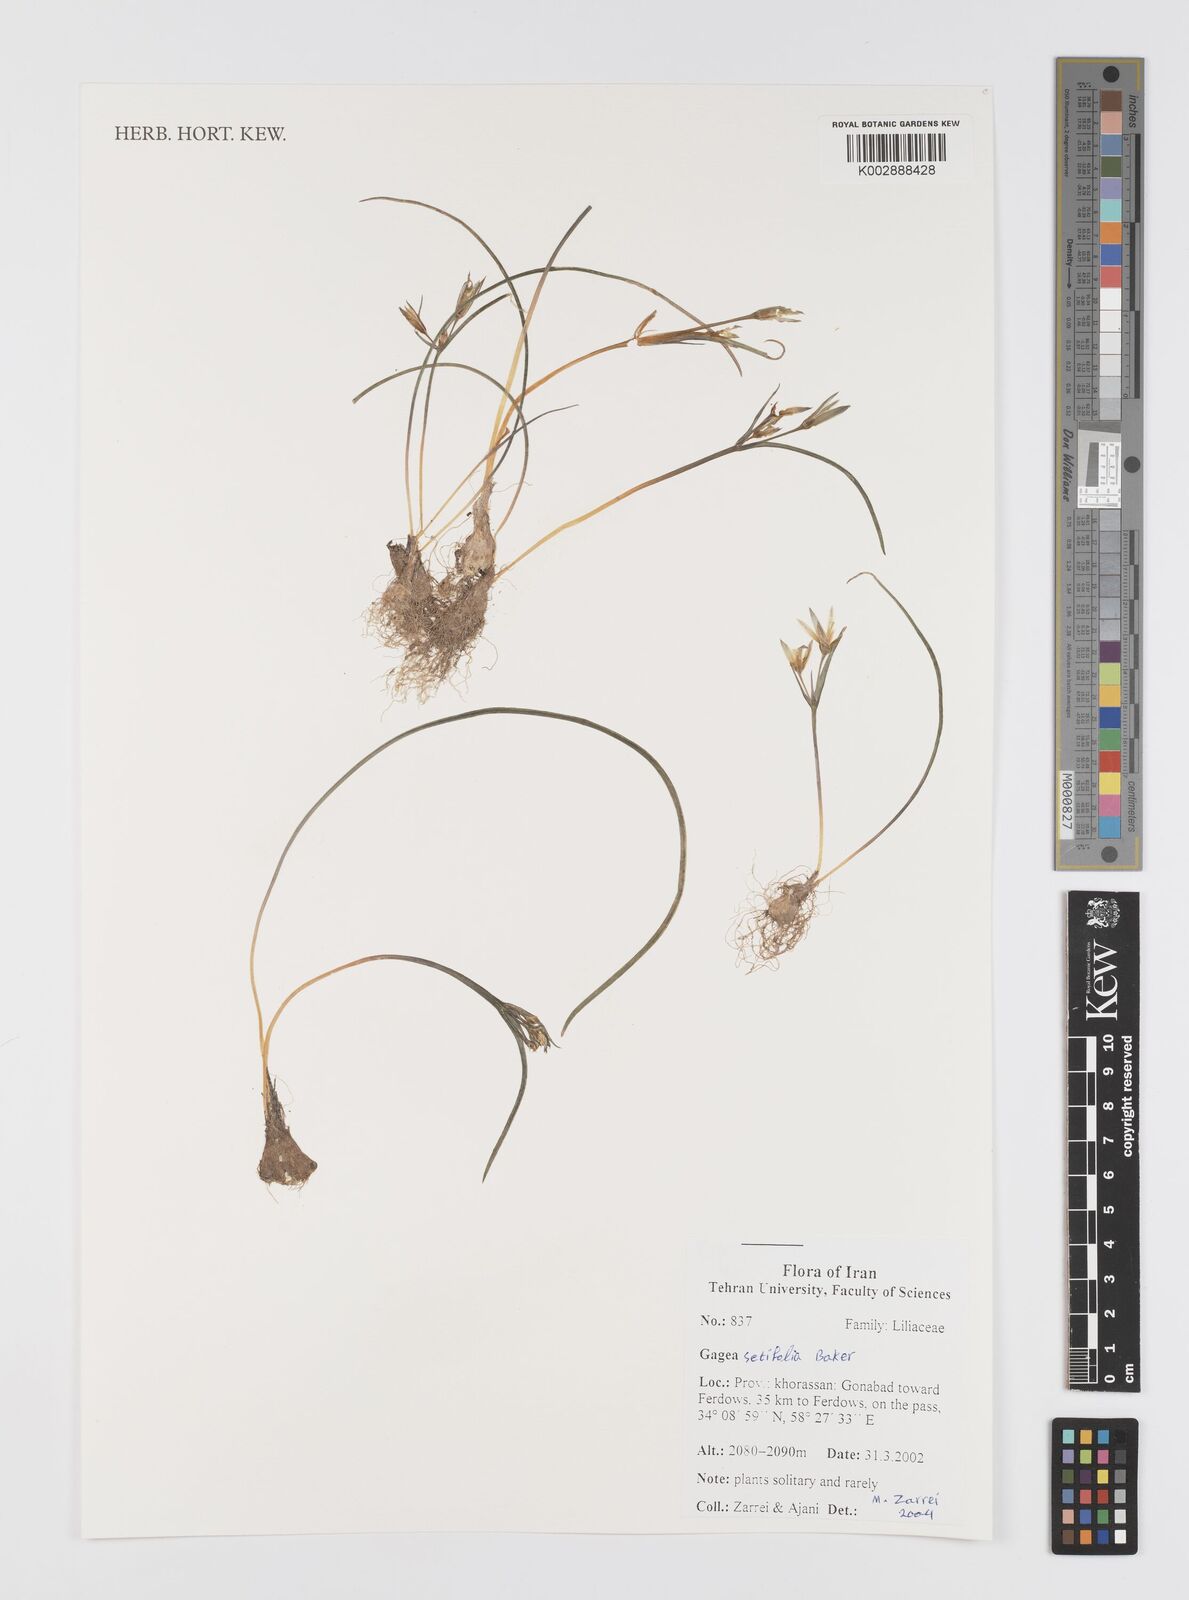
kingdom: Plantae
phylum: Tracheophyta
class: Liliopsida
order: Liliales
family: Liliaceae
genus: Gagea
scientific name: Gagea setifolia
